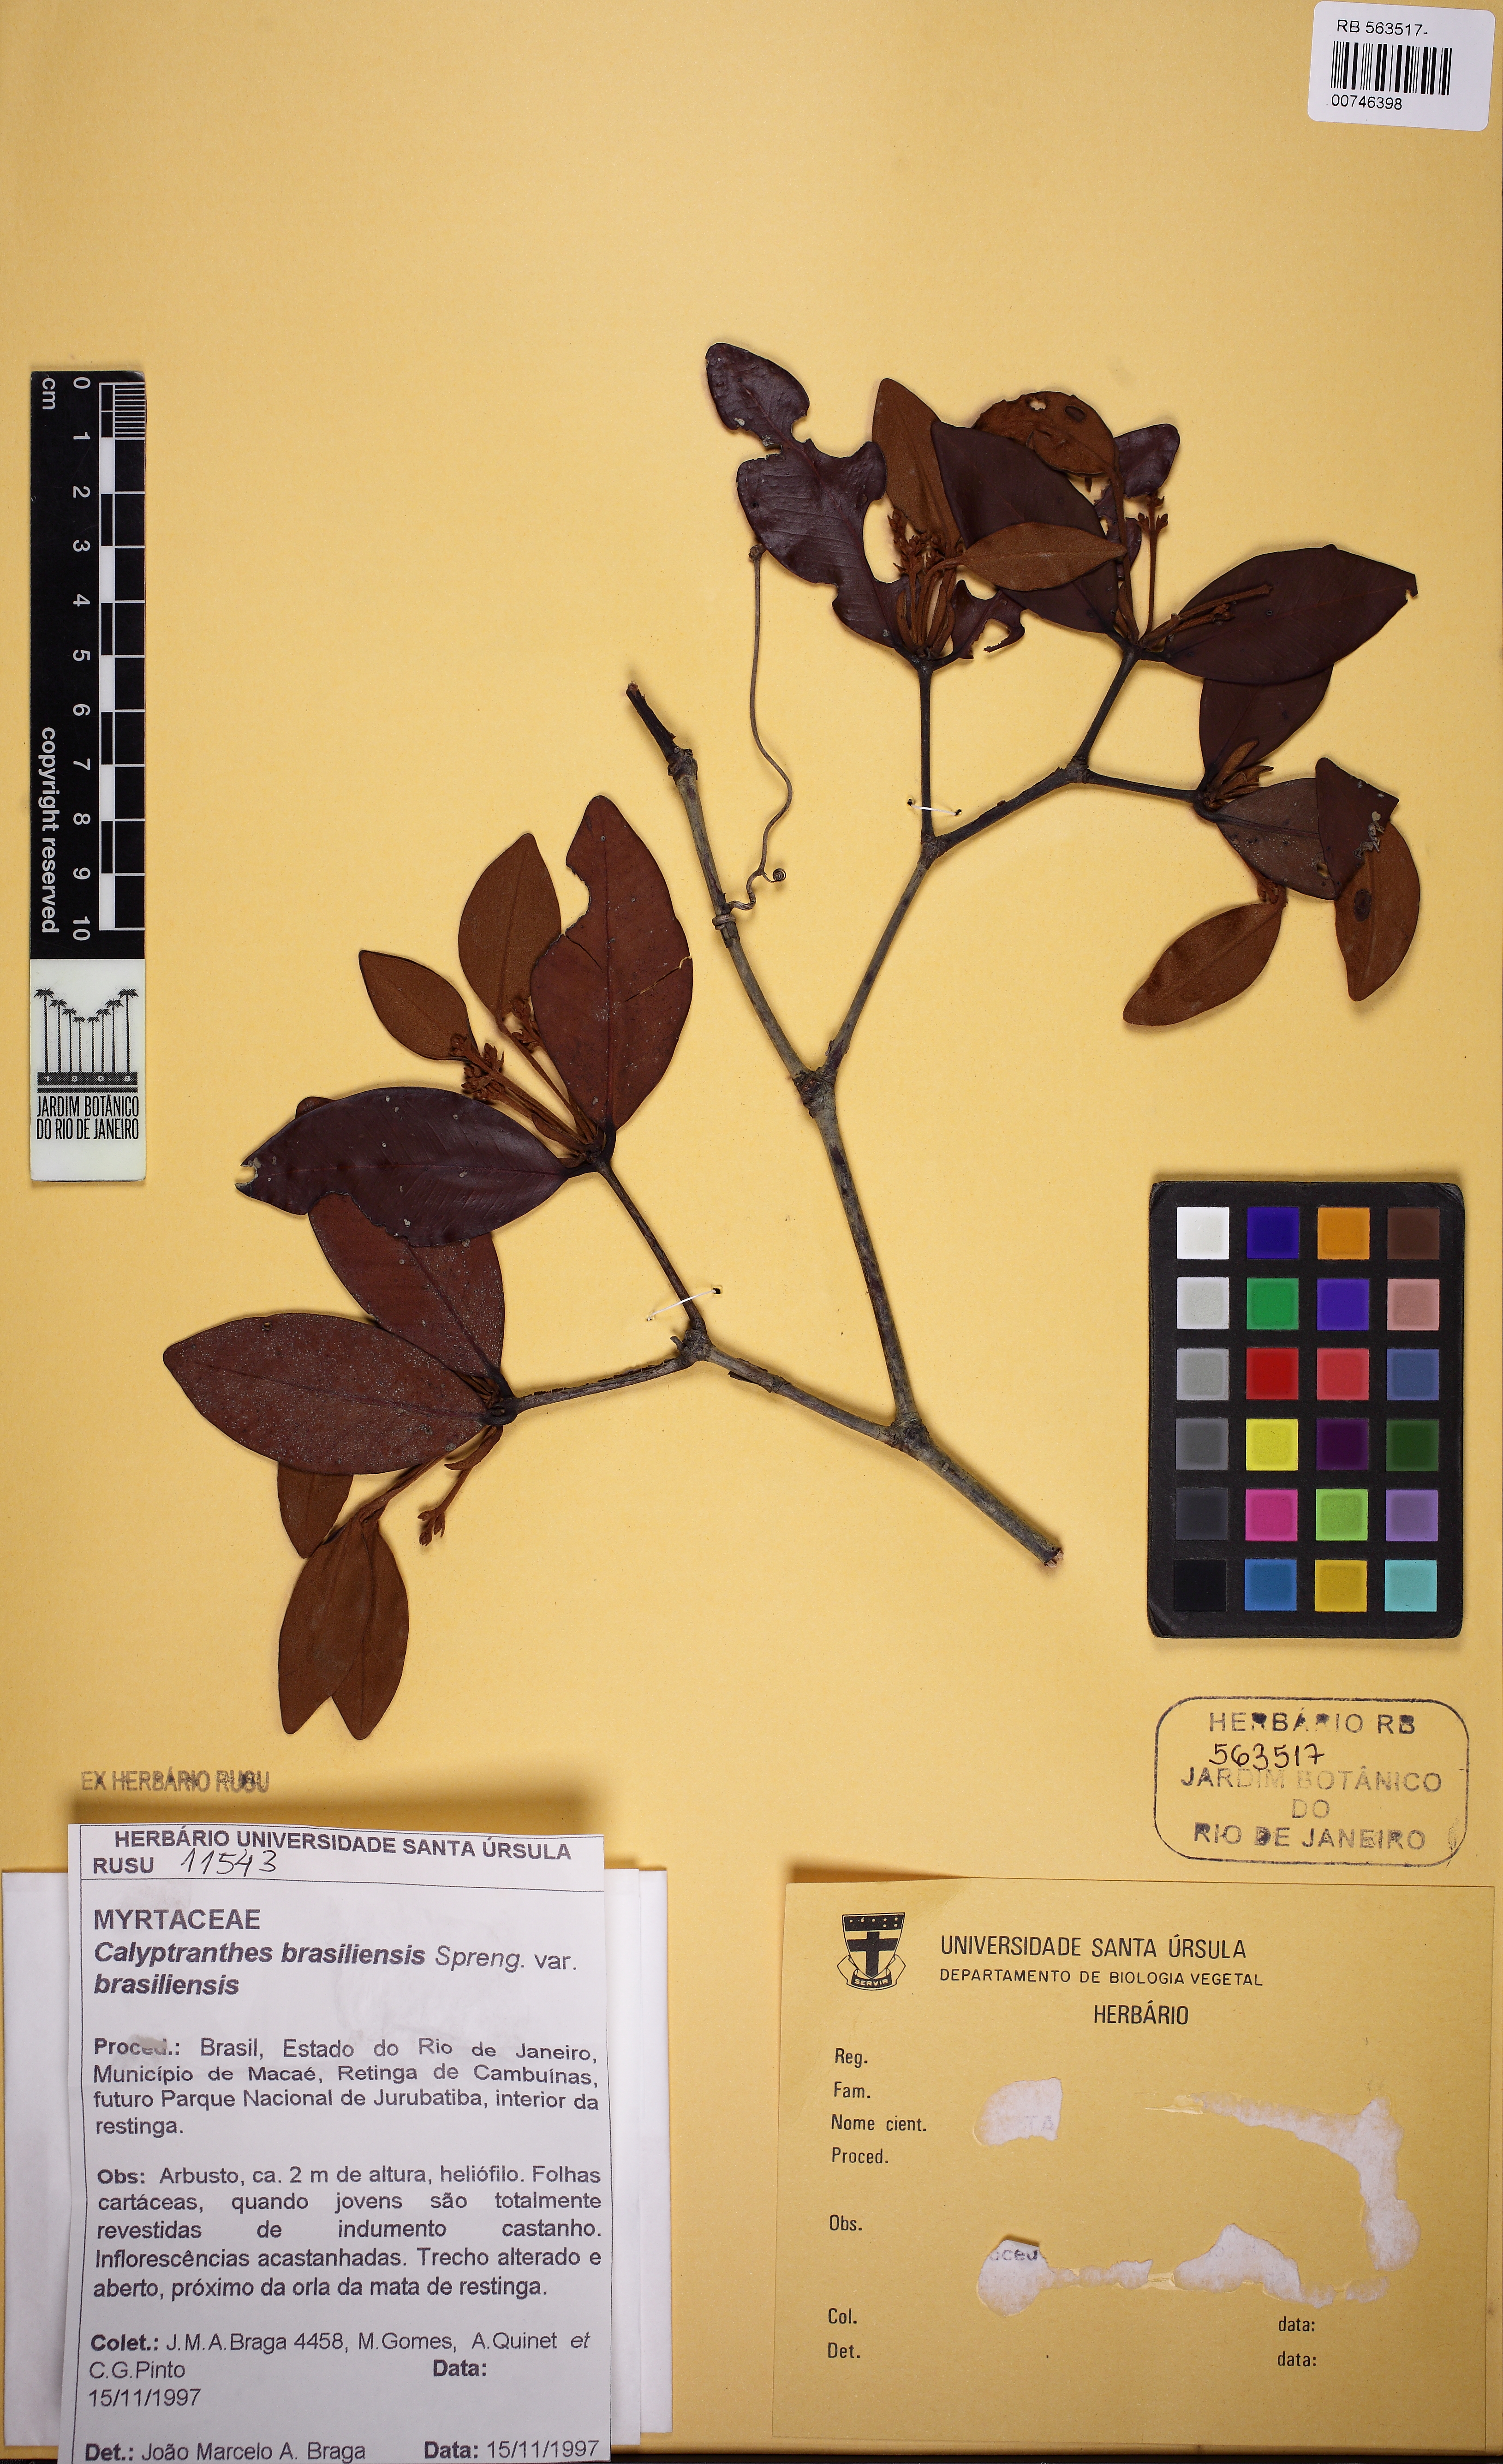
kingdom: Plantae
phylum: Tracheophyta
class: Magnoliopsida
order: Myrtales
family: Myrtaceae
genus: Myrcia
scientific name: Myrcia neobrasiliensis
